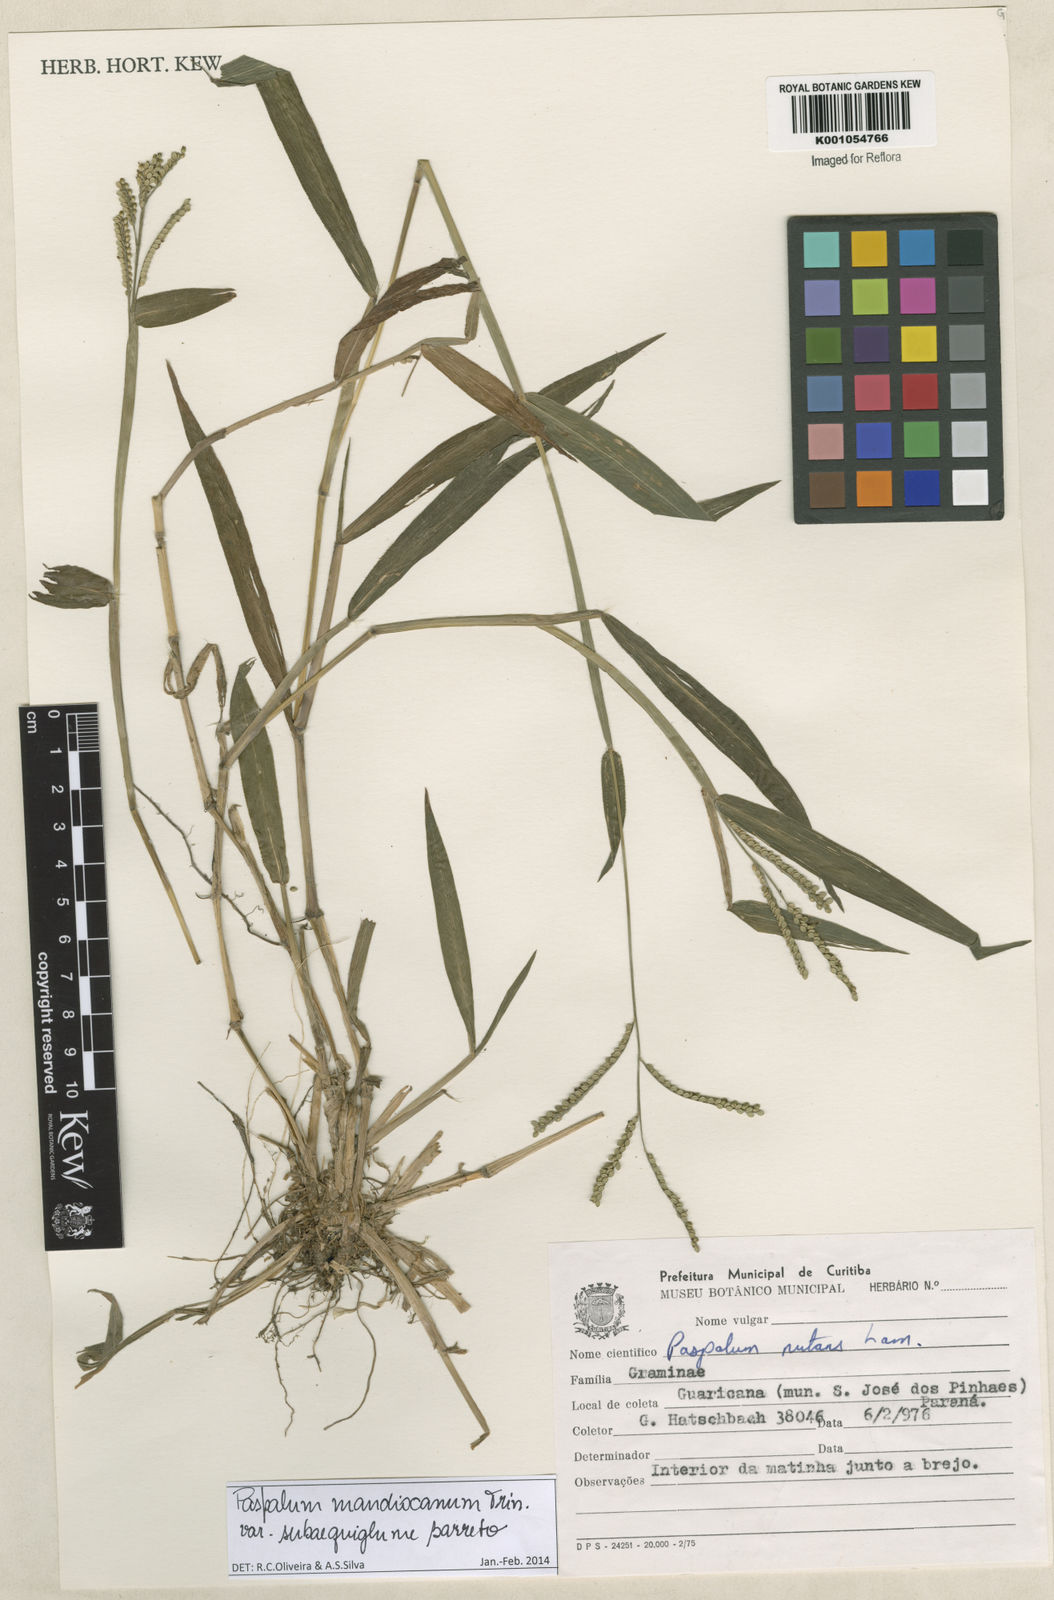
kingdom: Plantae
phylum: Tracheophyta
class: Liliopsida
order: Poales
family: Poaceae
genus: Paspalum
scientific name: Paspalum mandiocanum
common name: Paspalum
